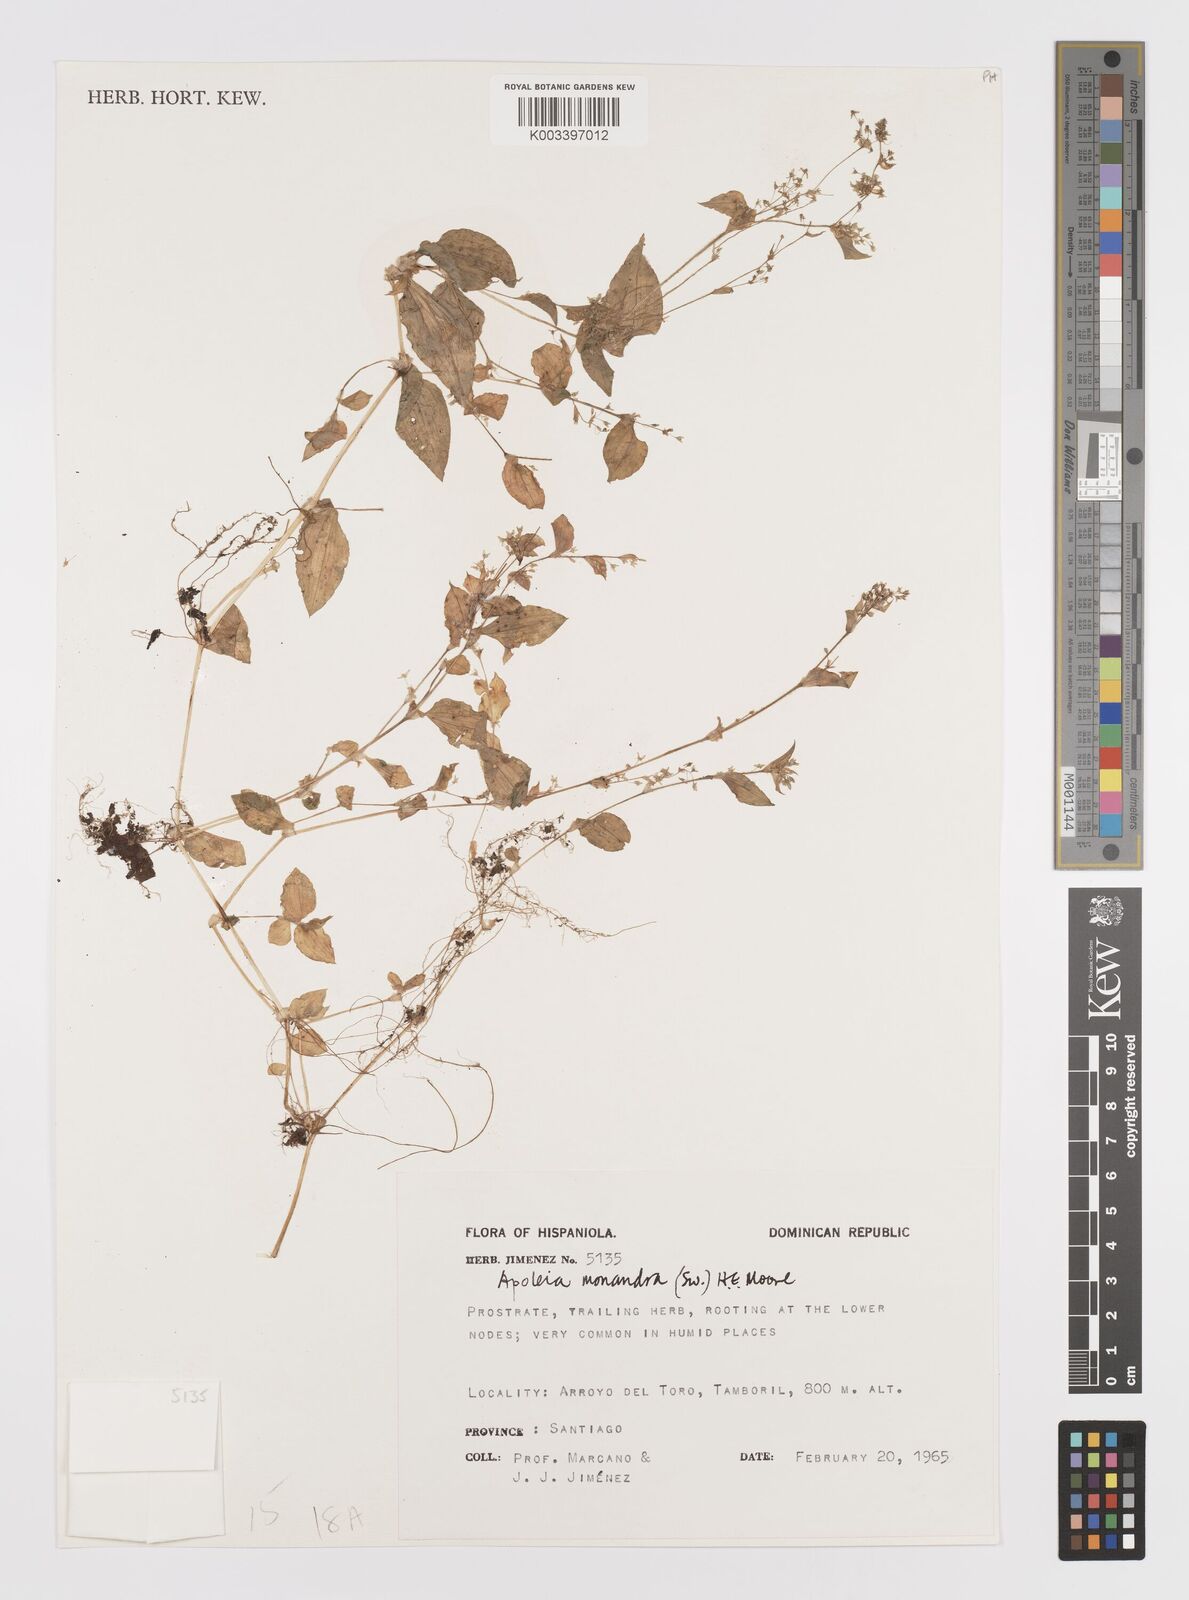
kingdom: Plantae
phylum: Tracheophyta
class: Liliopsida
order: Commelinales
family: Commelinaceae
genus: Callisia
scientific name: Callisia monandra
